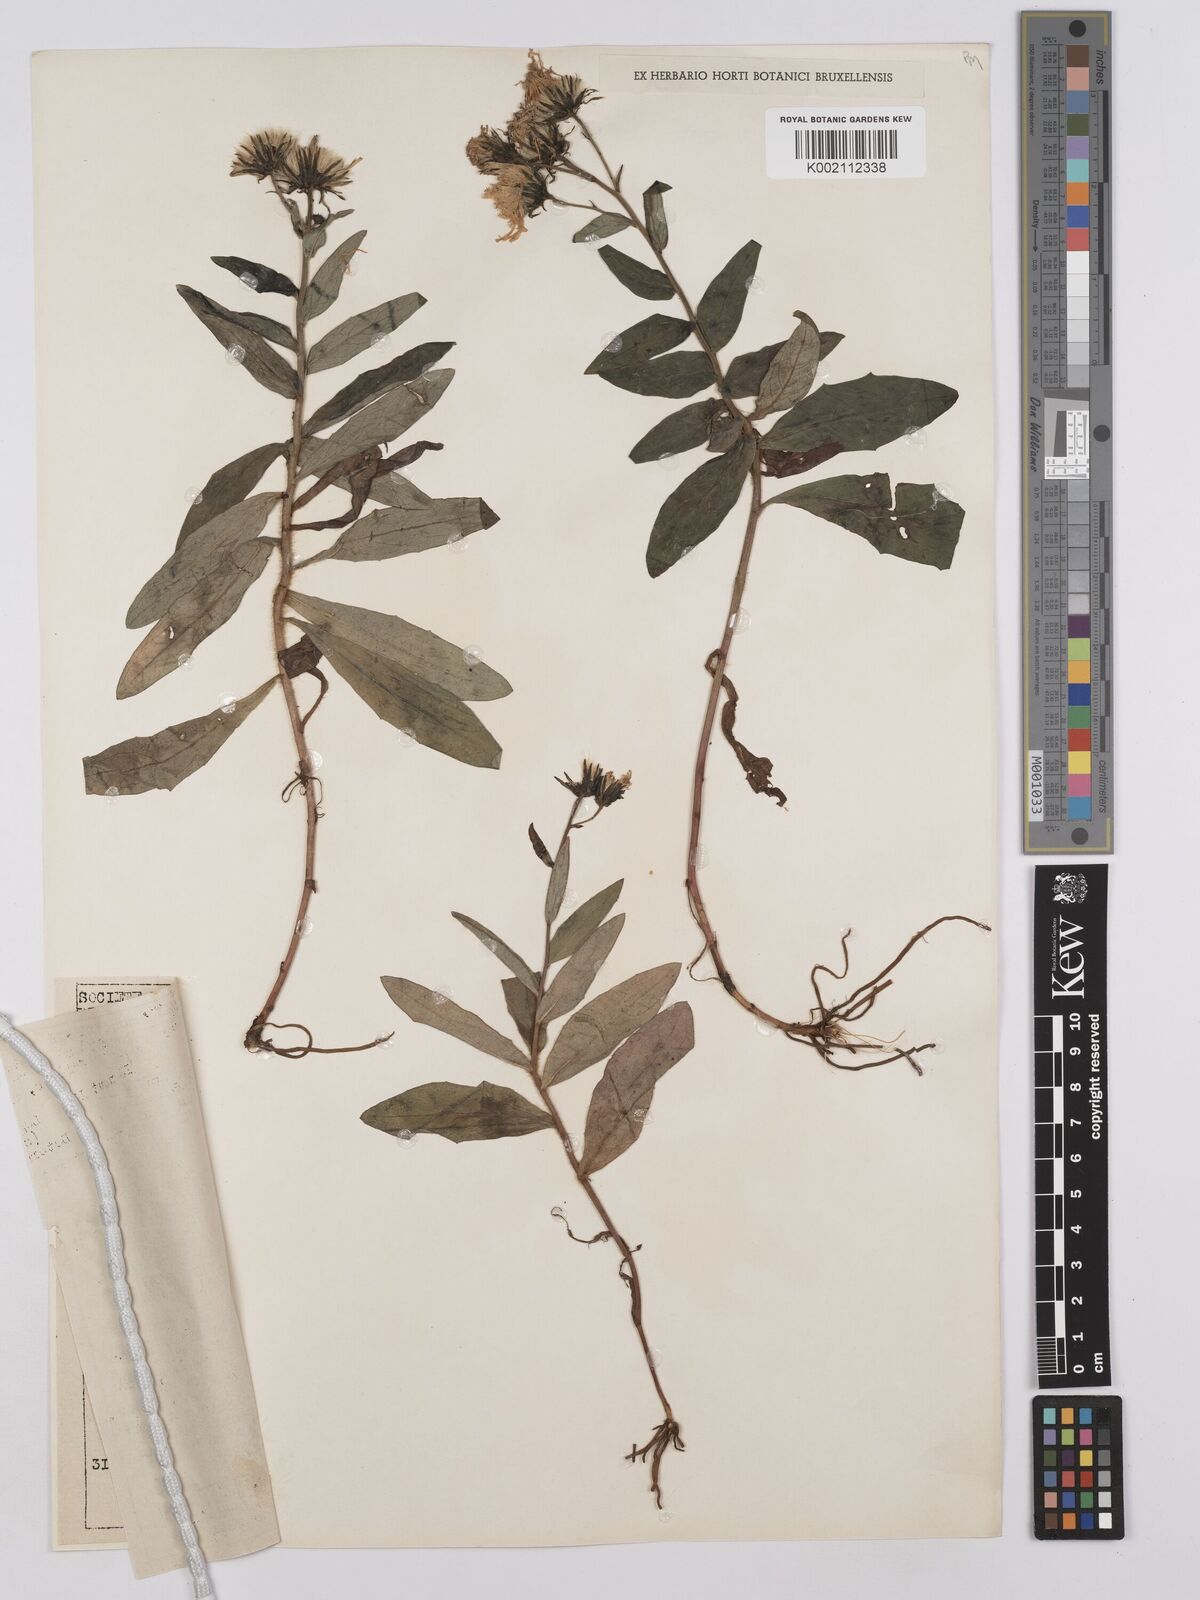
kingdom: Plantae
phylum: Tracheophyta
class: Magnoliopsida
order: Asterales
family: Asteraceae
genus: Hieracium
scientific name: Hieracium umbellatum
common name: Northern hawkweed
